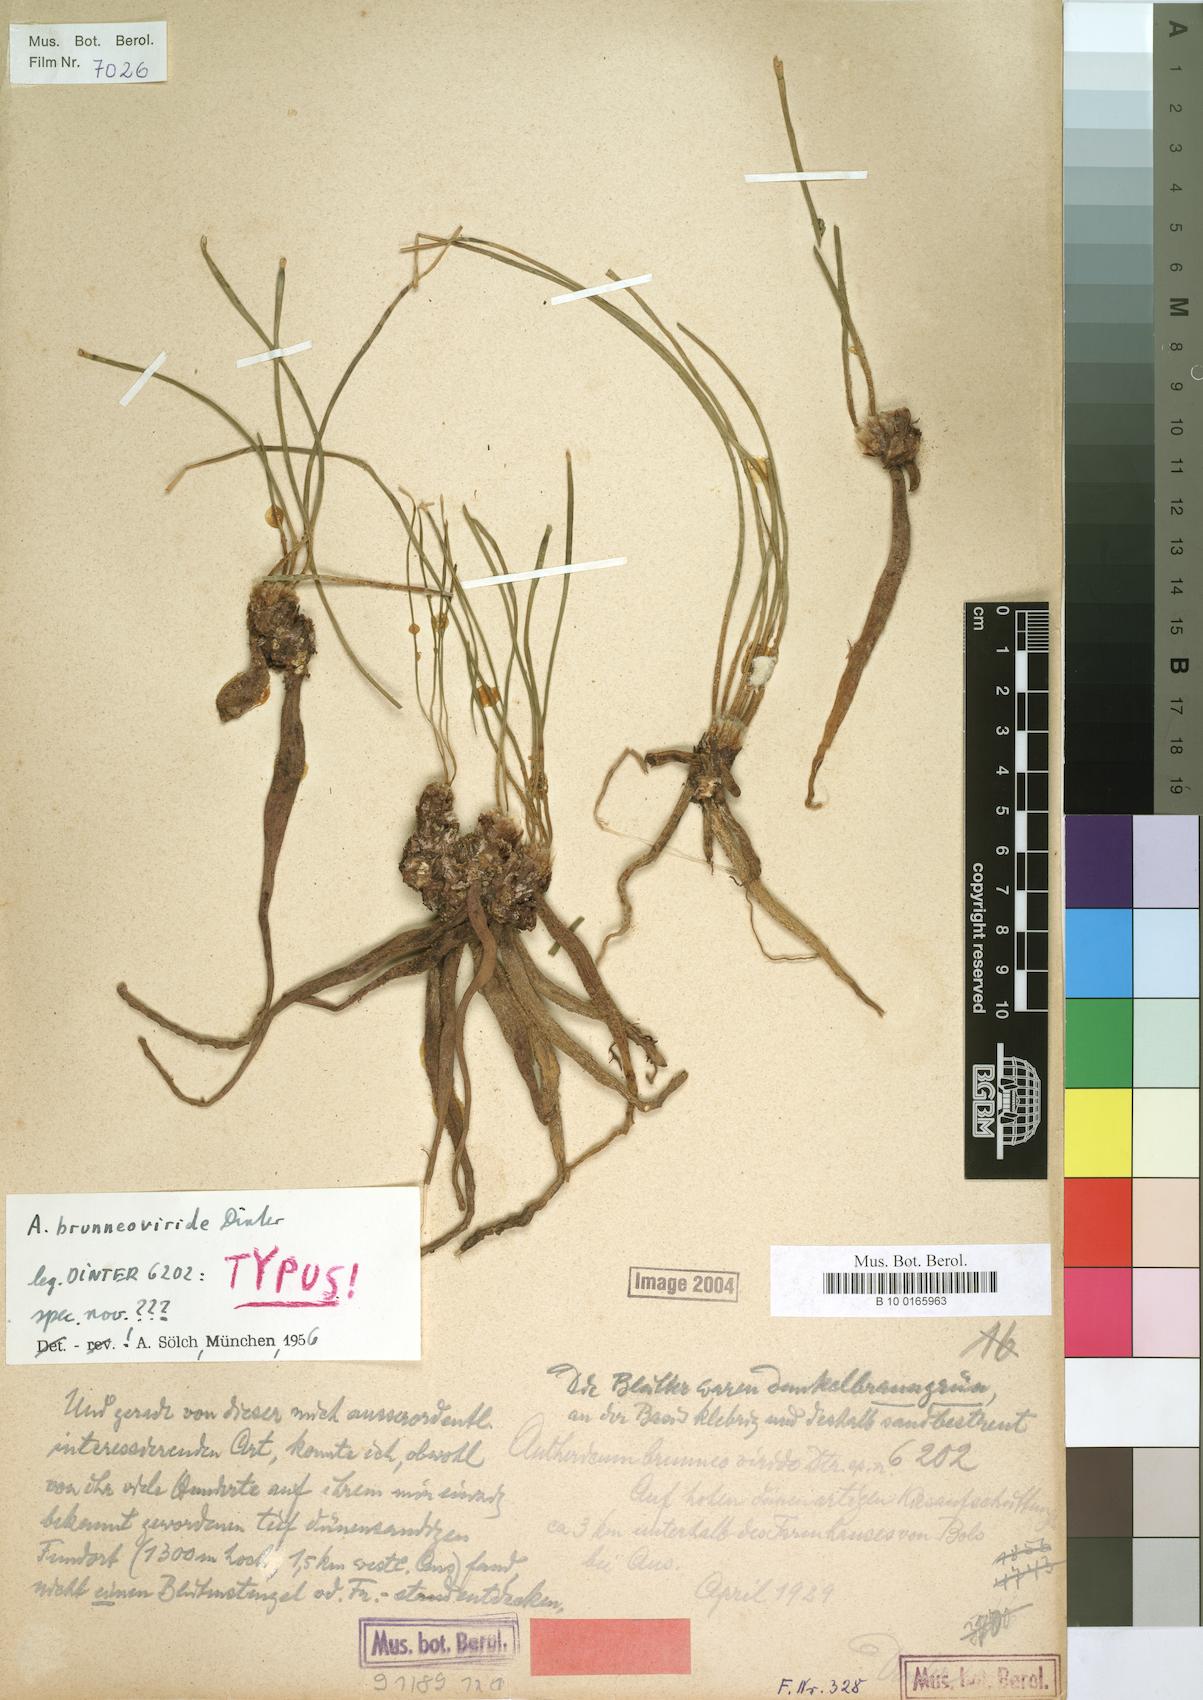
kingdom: Plantae
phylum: Tracheophyta
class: Liliopsida
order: Asparagales
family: Asparagaceae
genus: Anthericum
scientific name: Anthericum brunneoviride
